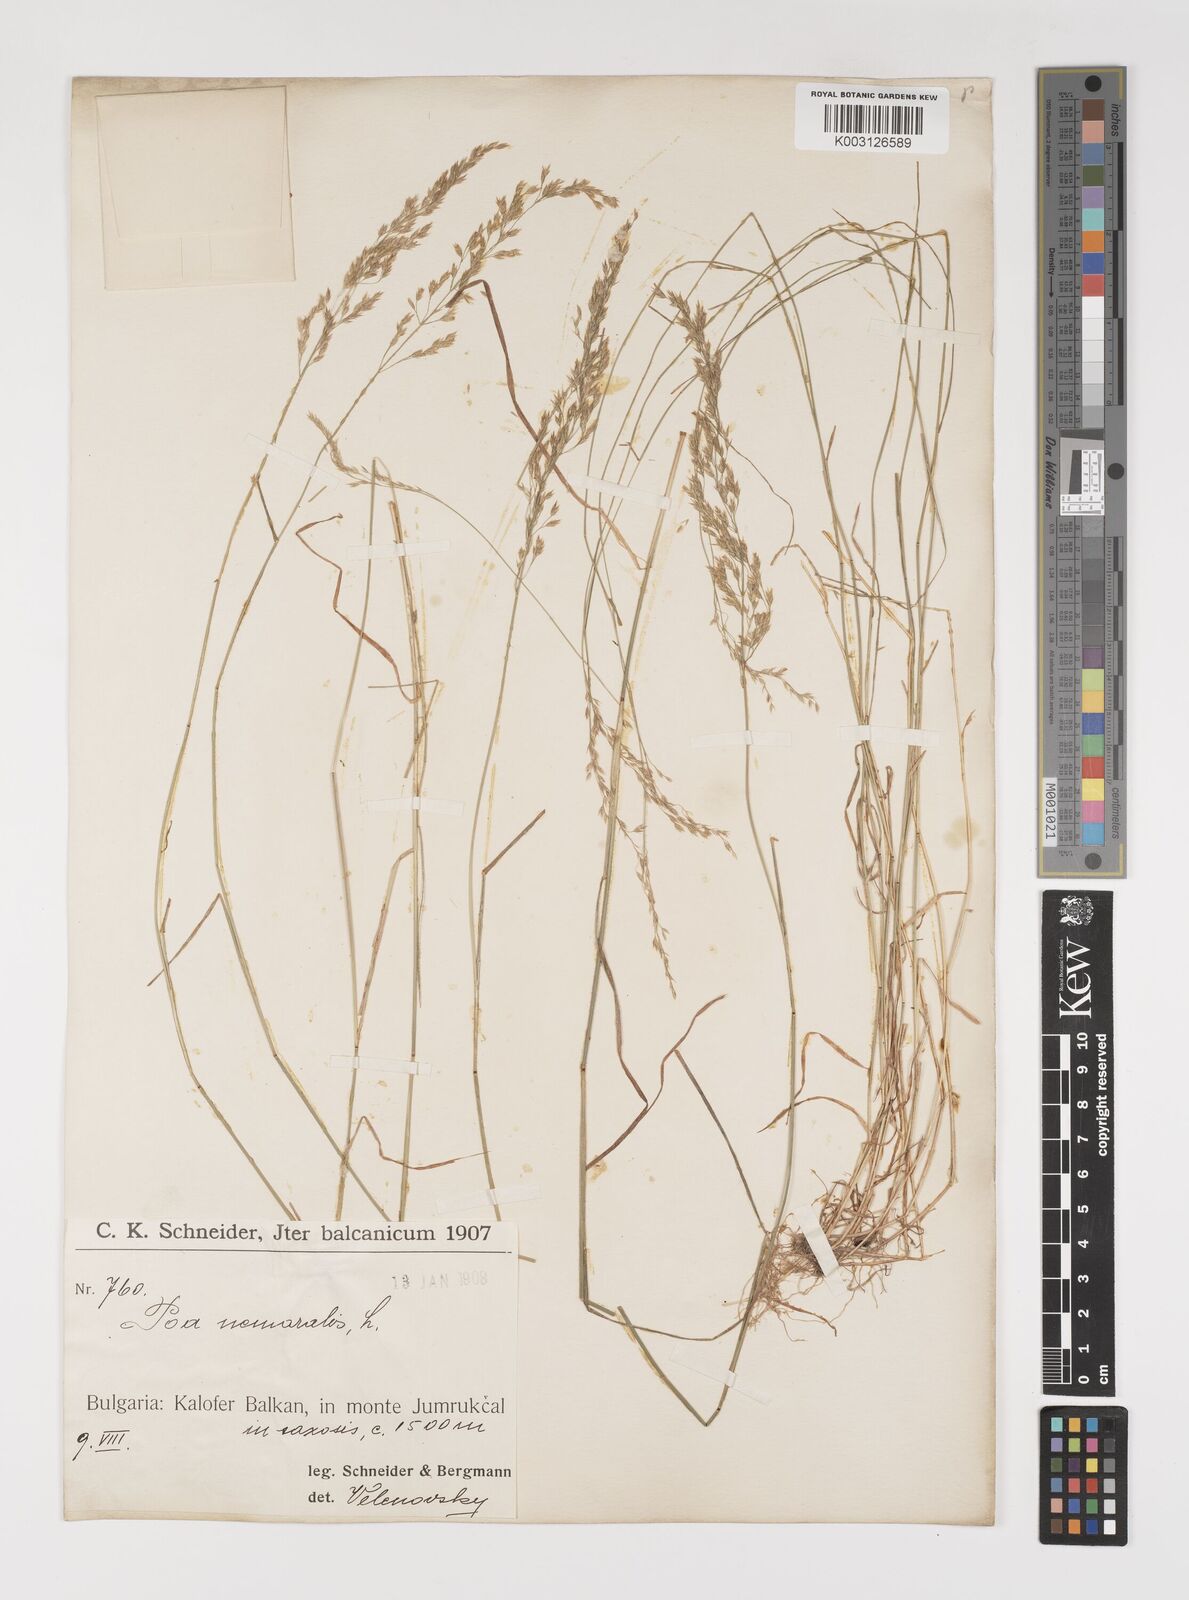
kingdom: Plantae
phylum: Tracheophyta
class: Liliopsida
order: Poales
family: Poaceae
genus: Poa
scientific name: Poa nemoralis
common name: Wood bluegrass
